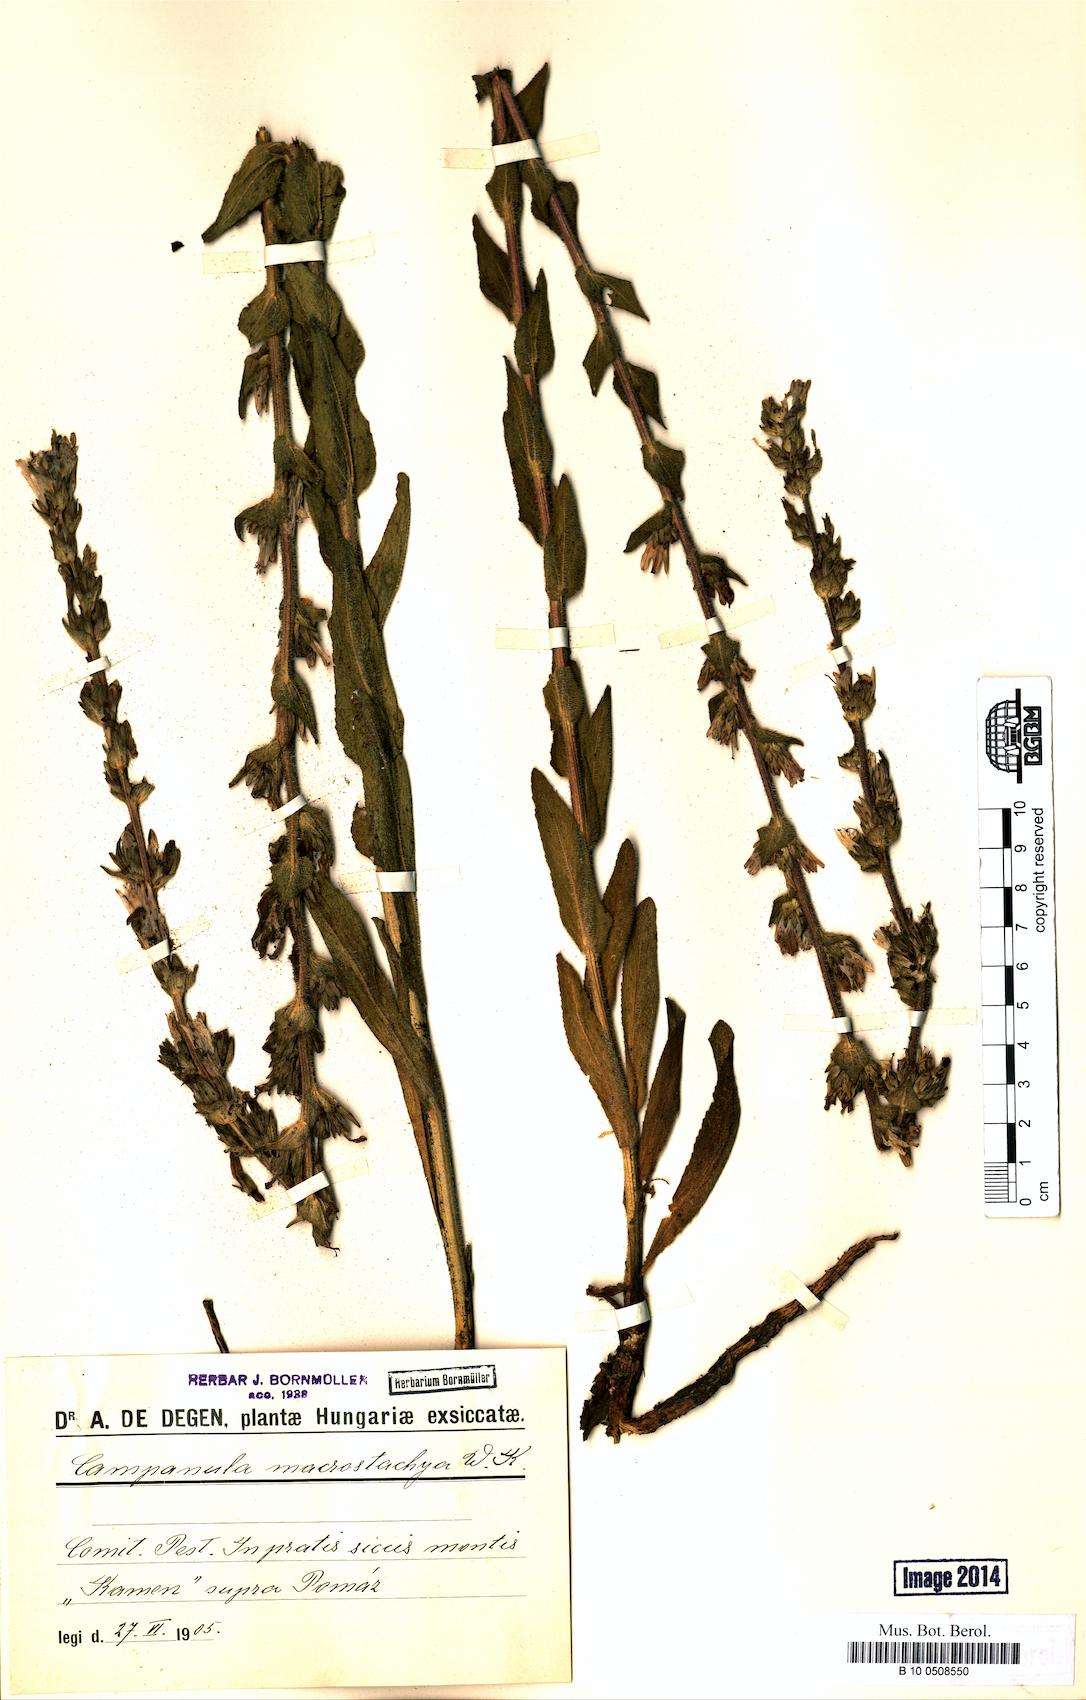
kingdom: Plantae
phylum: Tracheophyta
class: Magnoliopsida
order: Asterales
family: Campanulaceae
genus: Campanula
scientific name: Campanula macrostachya
